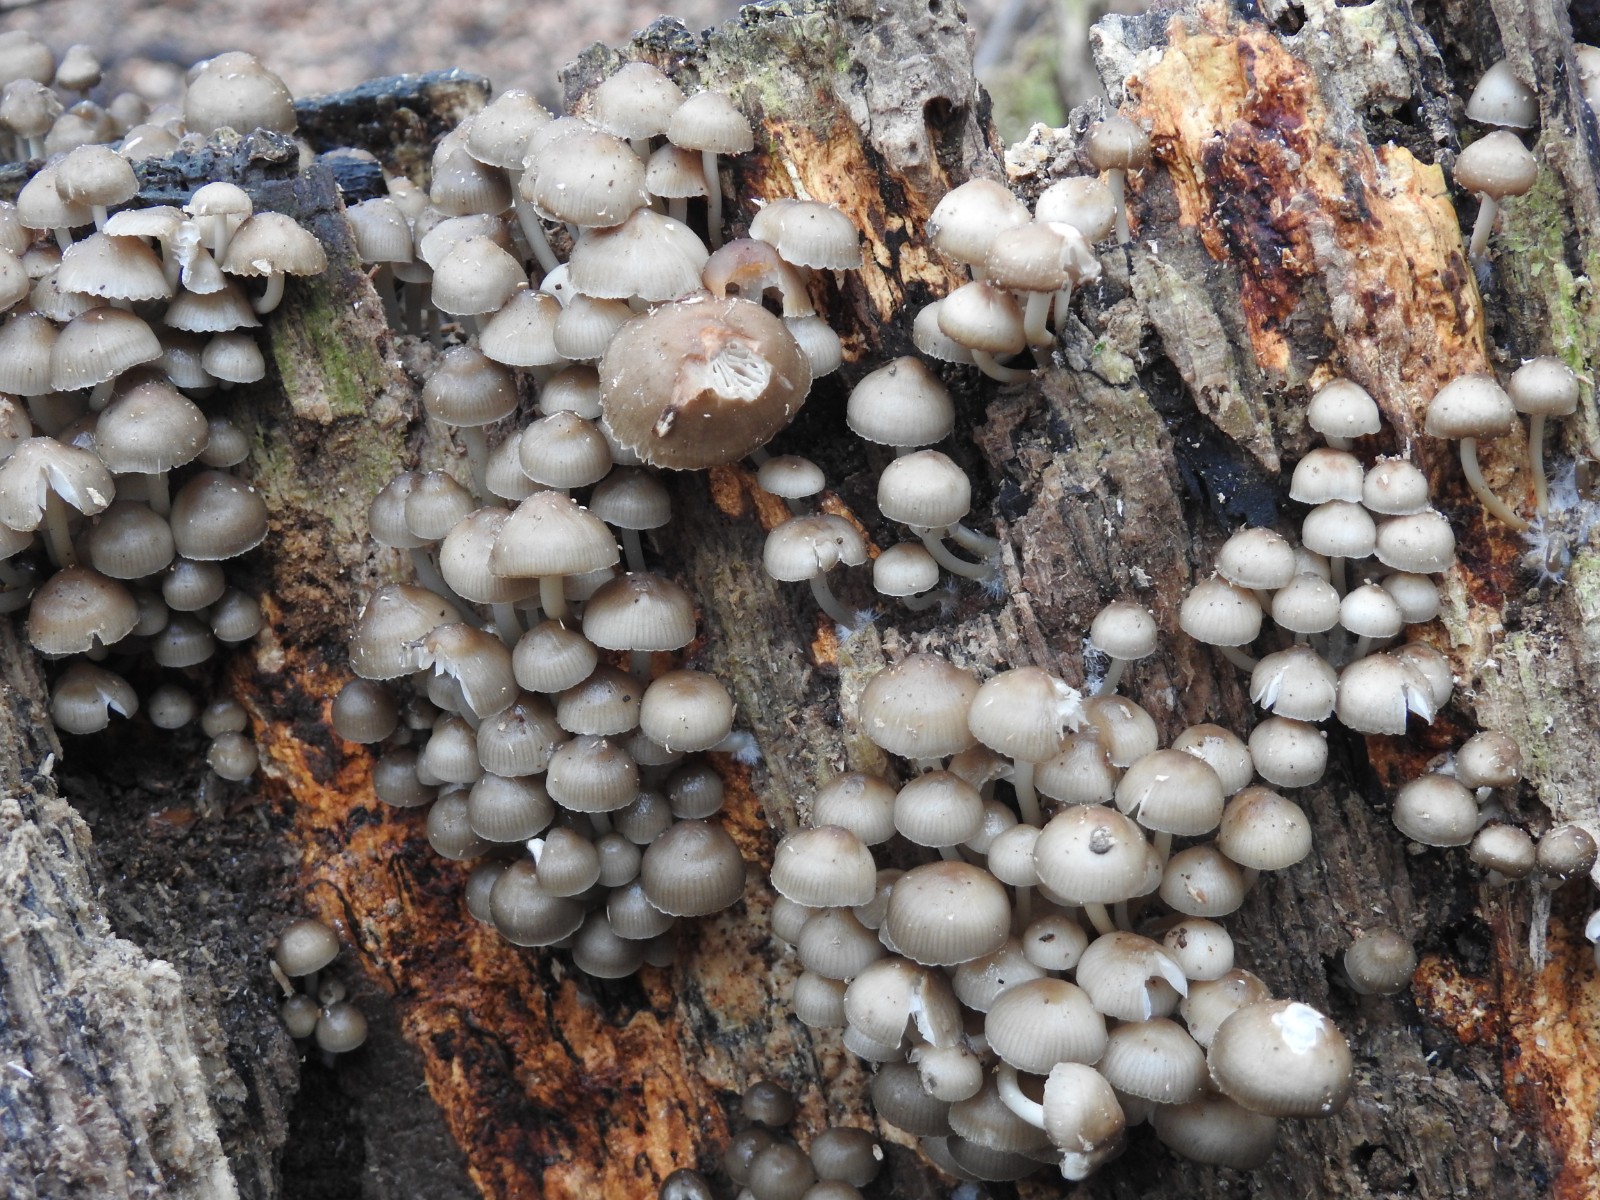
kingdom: Fungi
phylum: Basidiomycota
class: Agaricomycetes
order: Agaricales
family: Mycenaceae
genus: Mycena
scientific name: Mycena tintinnabulum
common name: vinter-huesvamp
